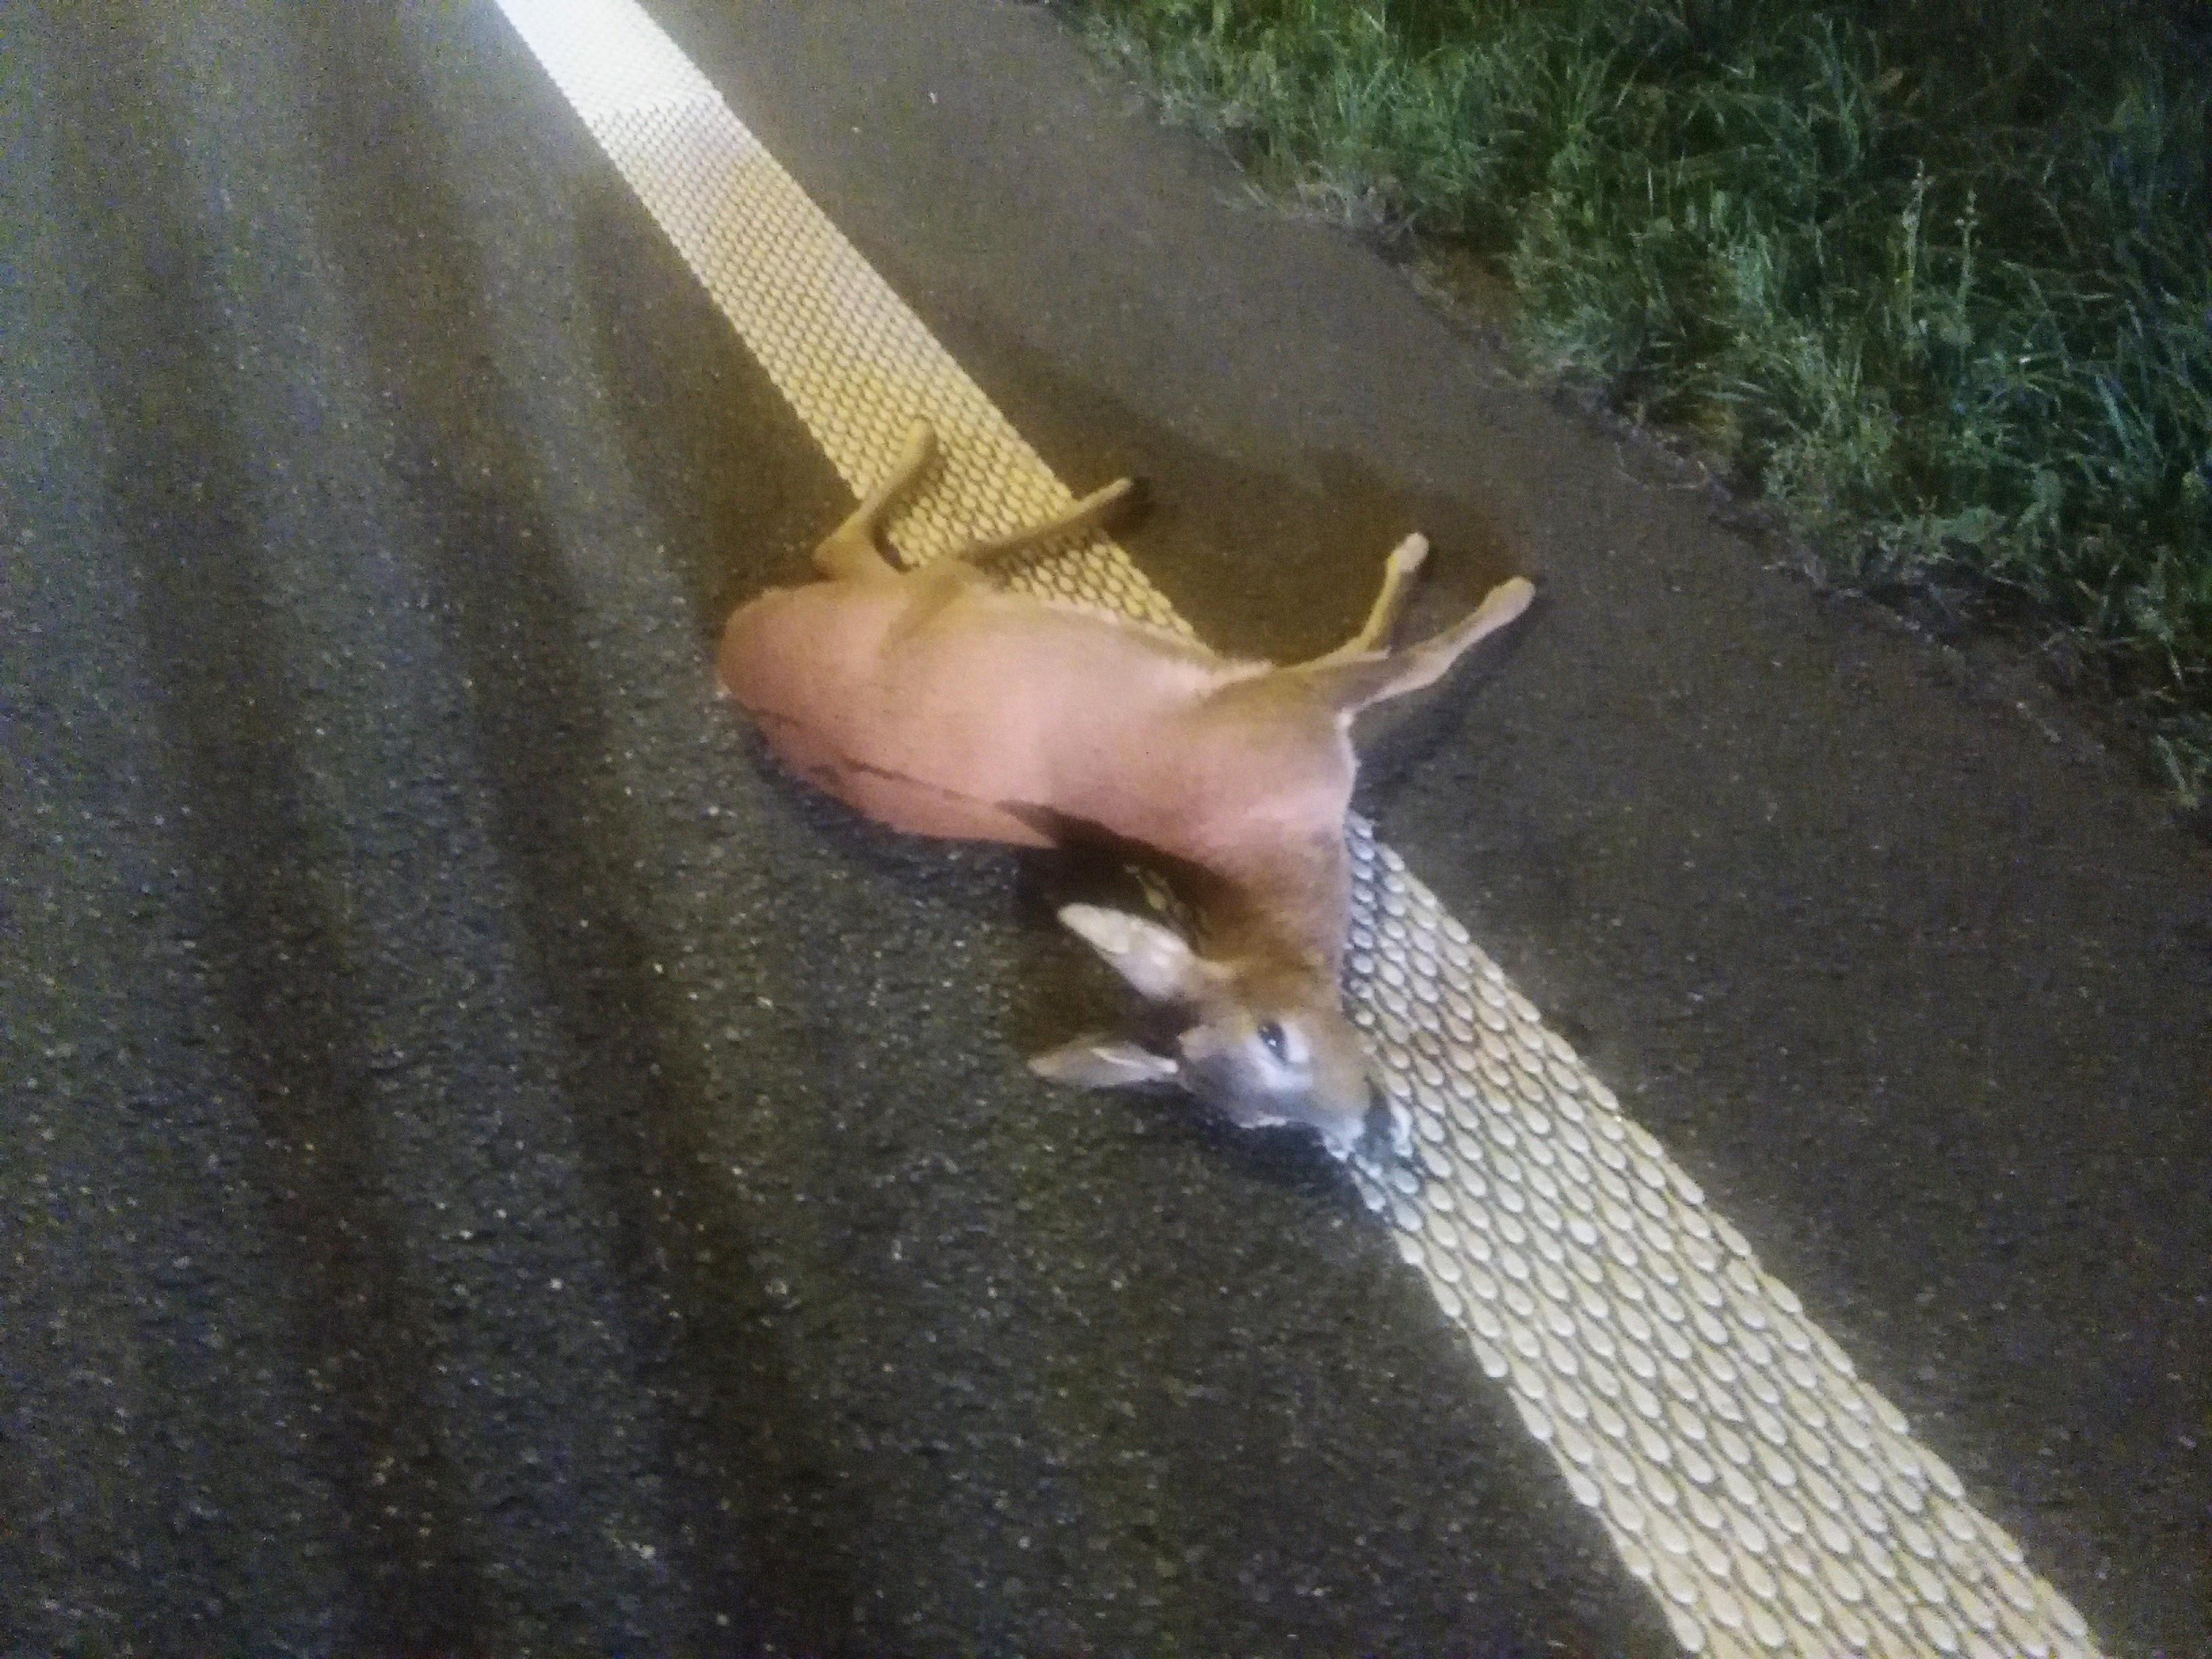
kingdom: Animalia
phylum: Chordata
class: Mammalia
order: Artiodactyla
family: Cervidae
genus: Capreolus
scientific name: Capreolus capreolus
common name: Western roe deer
